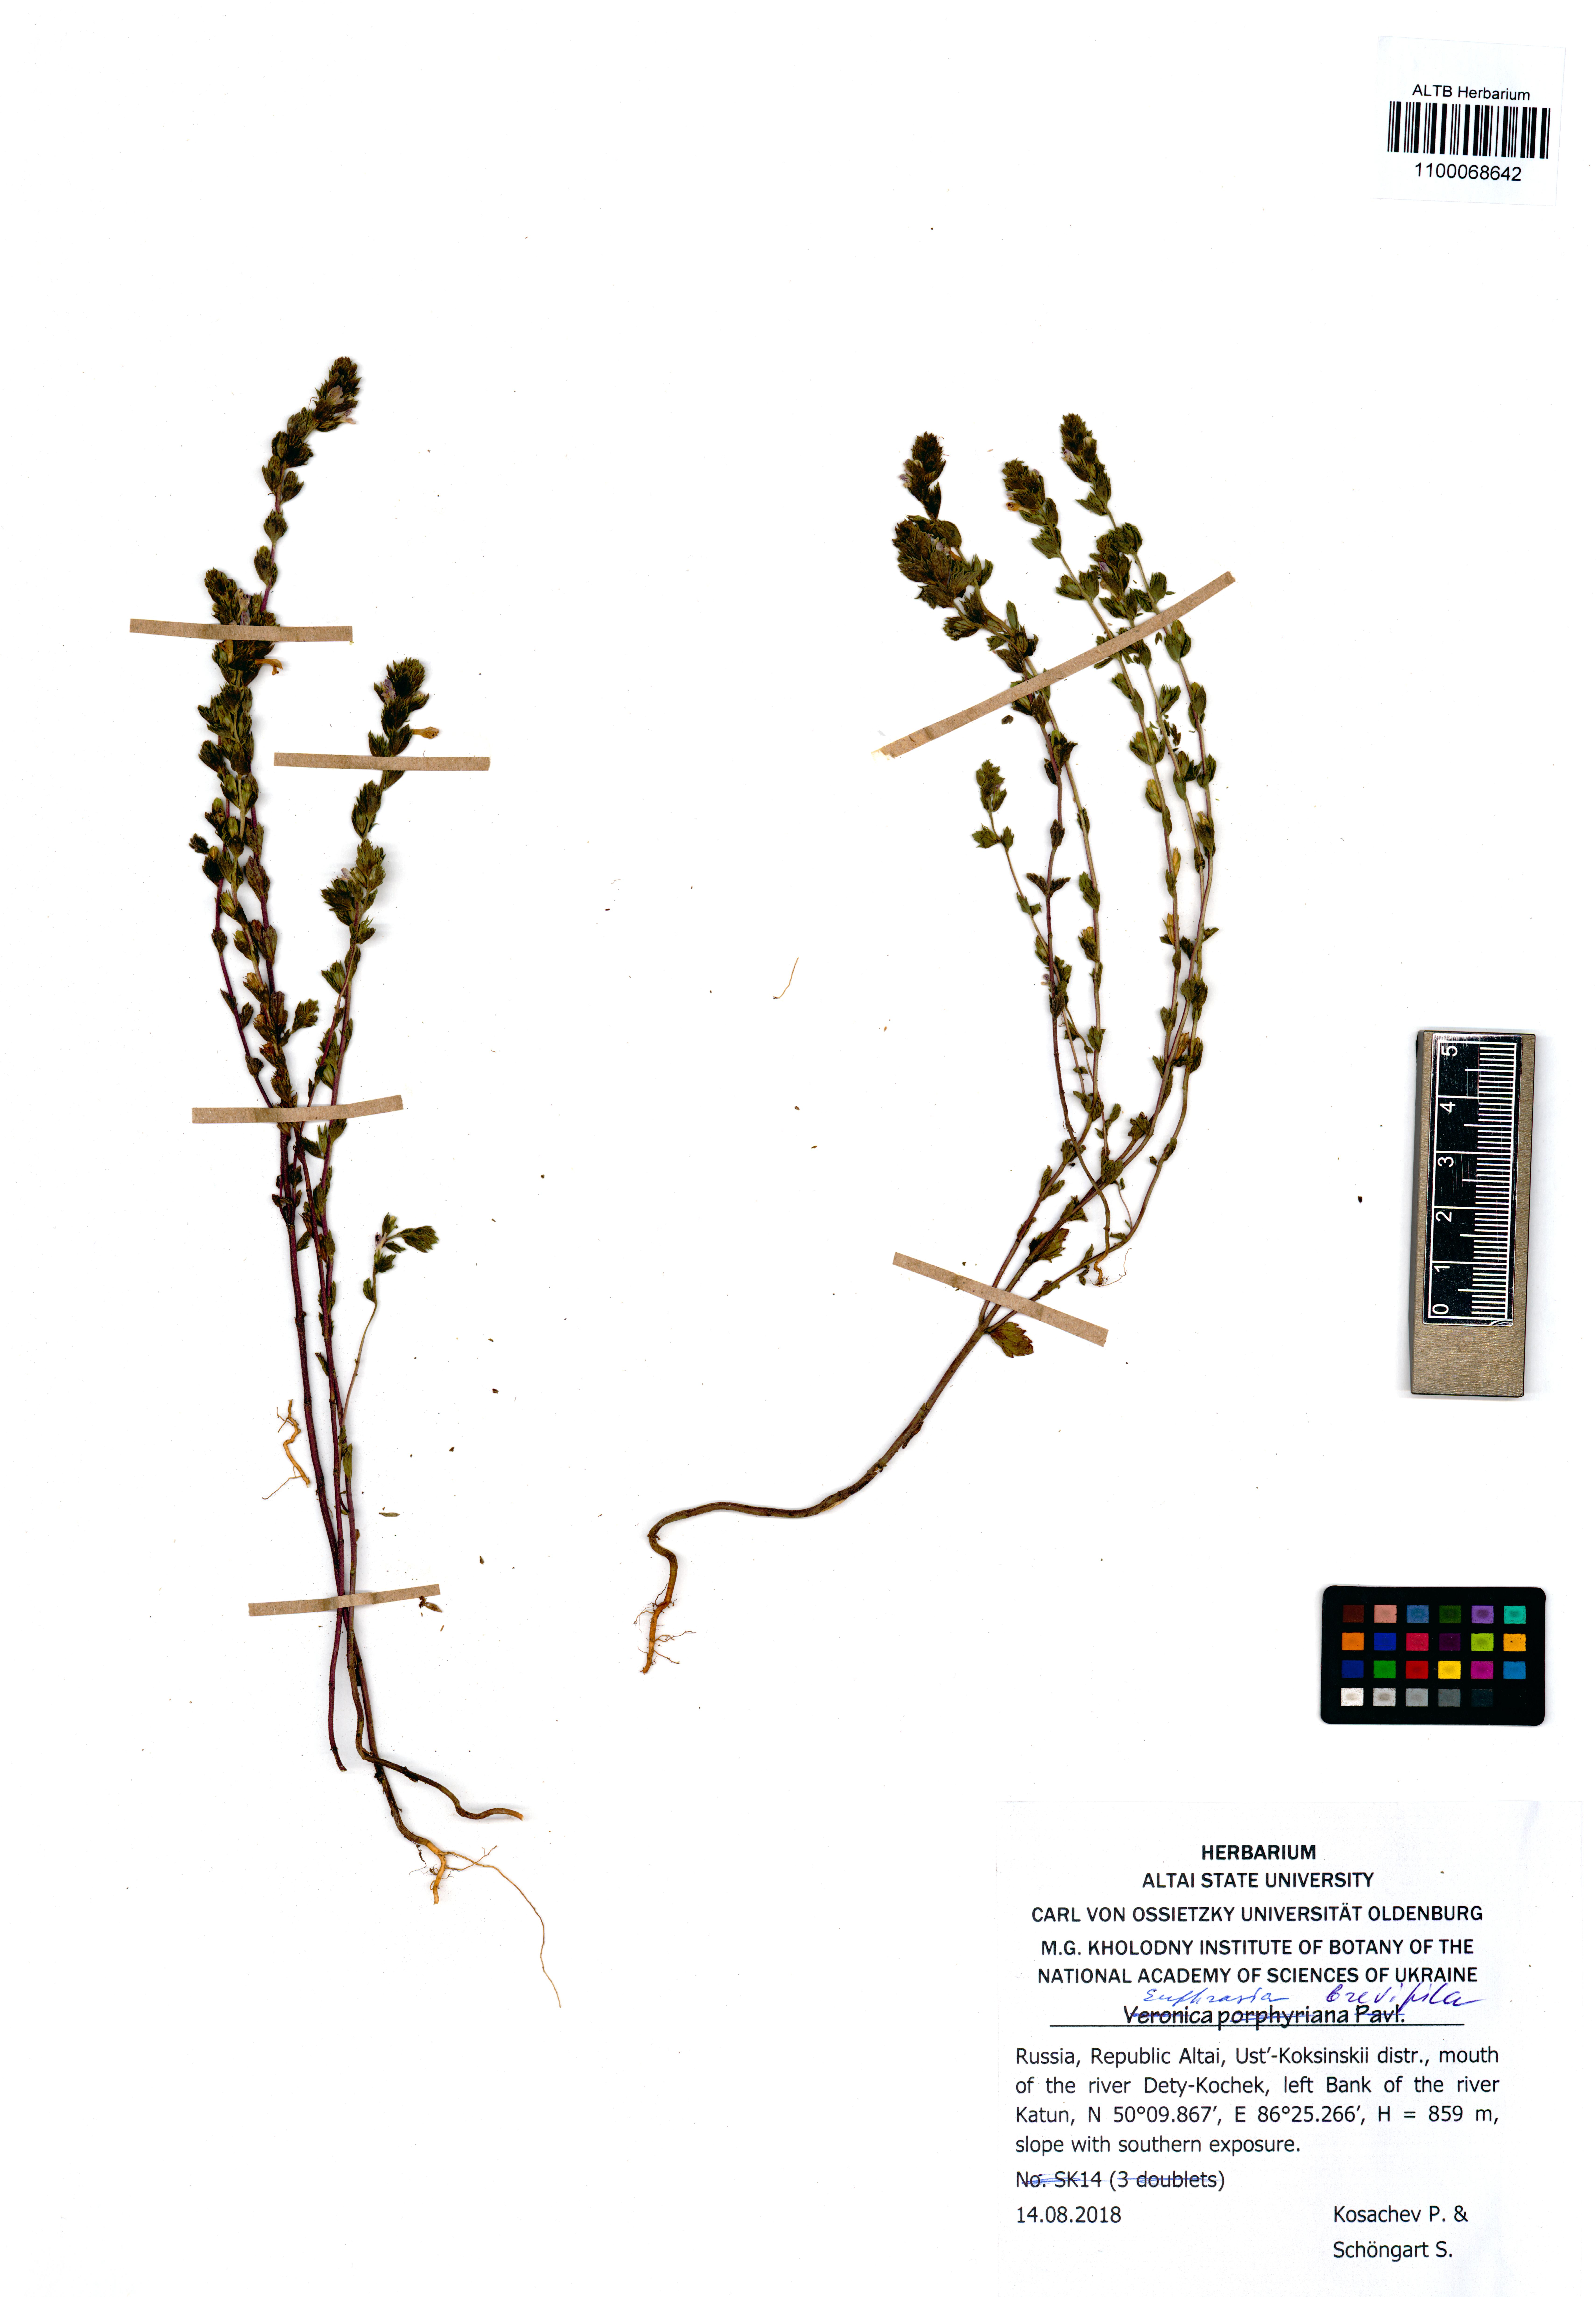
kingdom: Plantae
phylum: Tracheophyta
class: Magnoliopsida
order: Lamiales
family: Orobanchaceae
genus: Euphrasia
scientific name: Euphrasia vernalis
